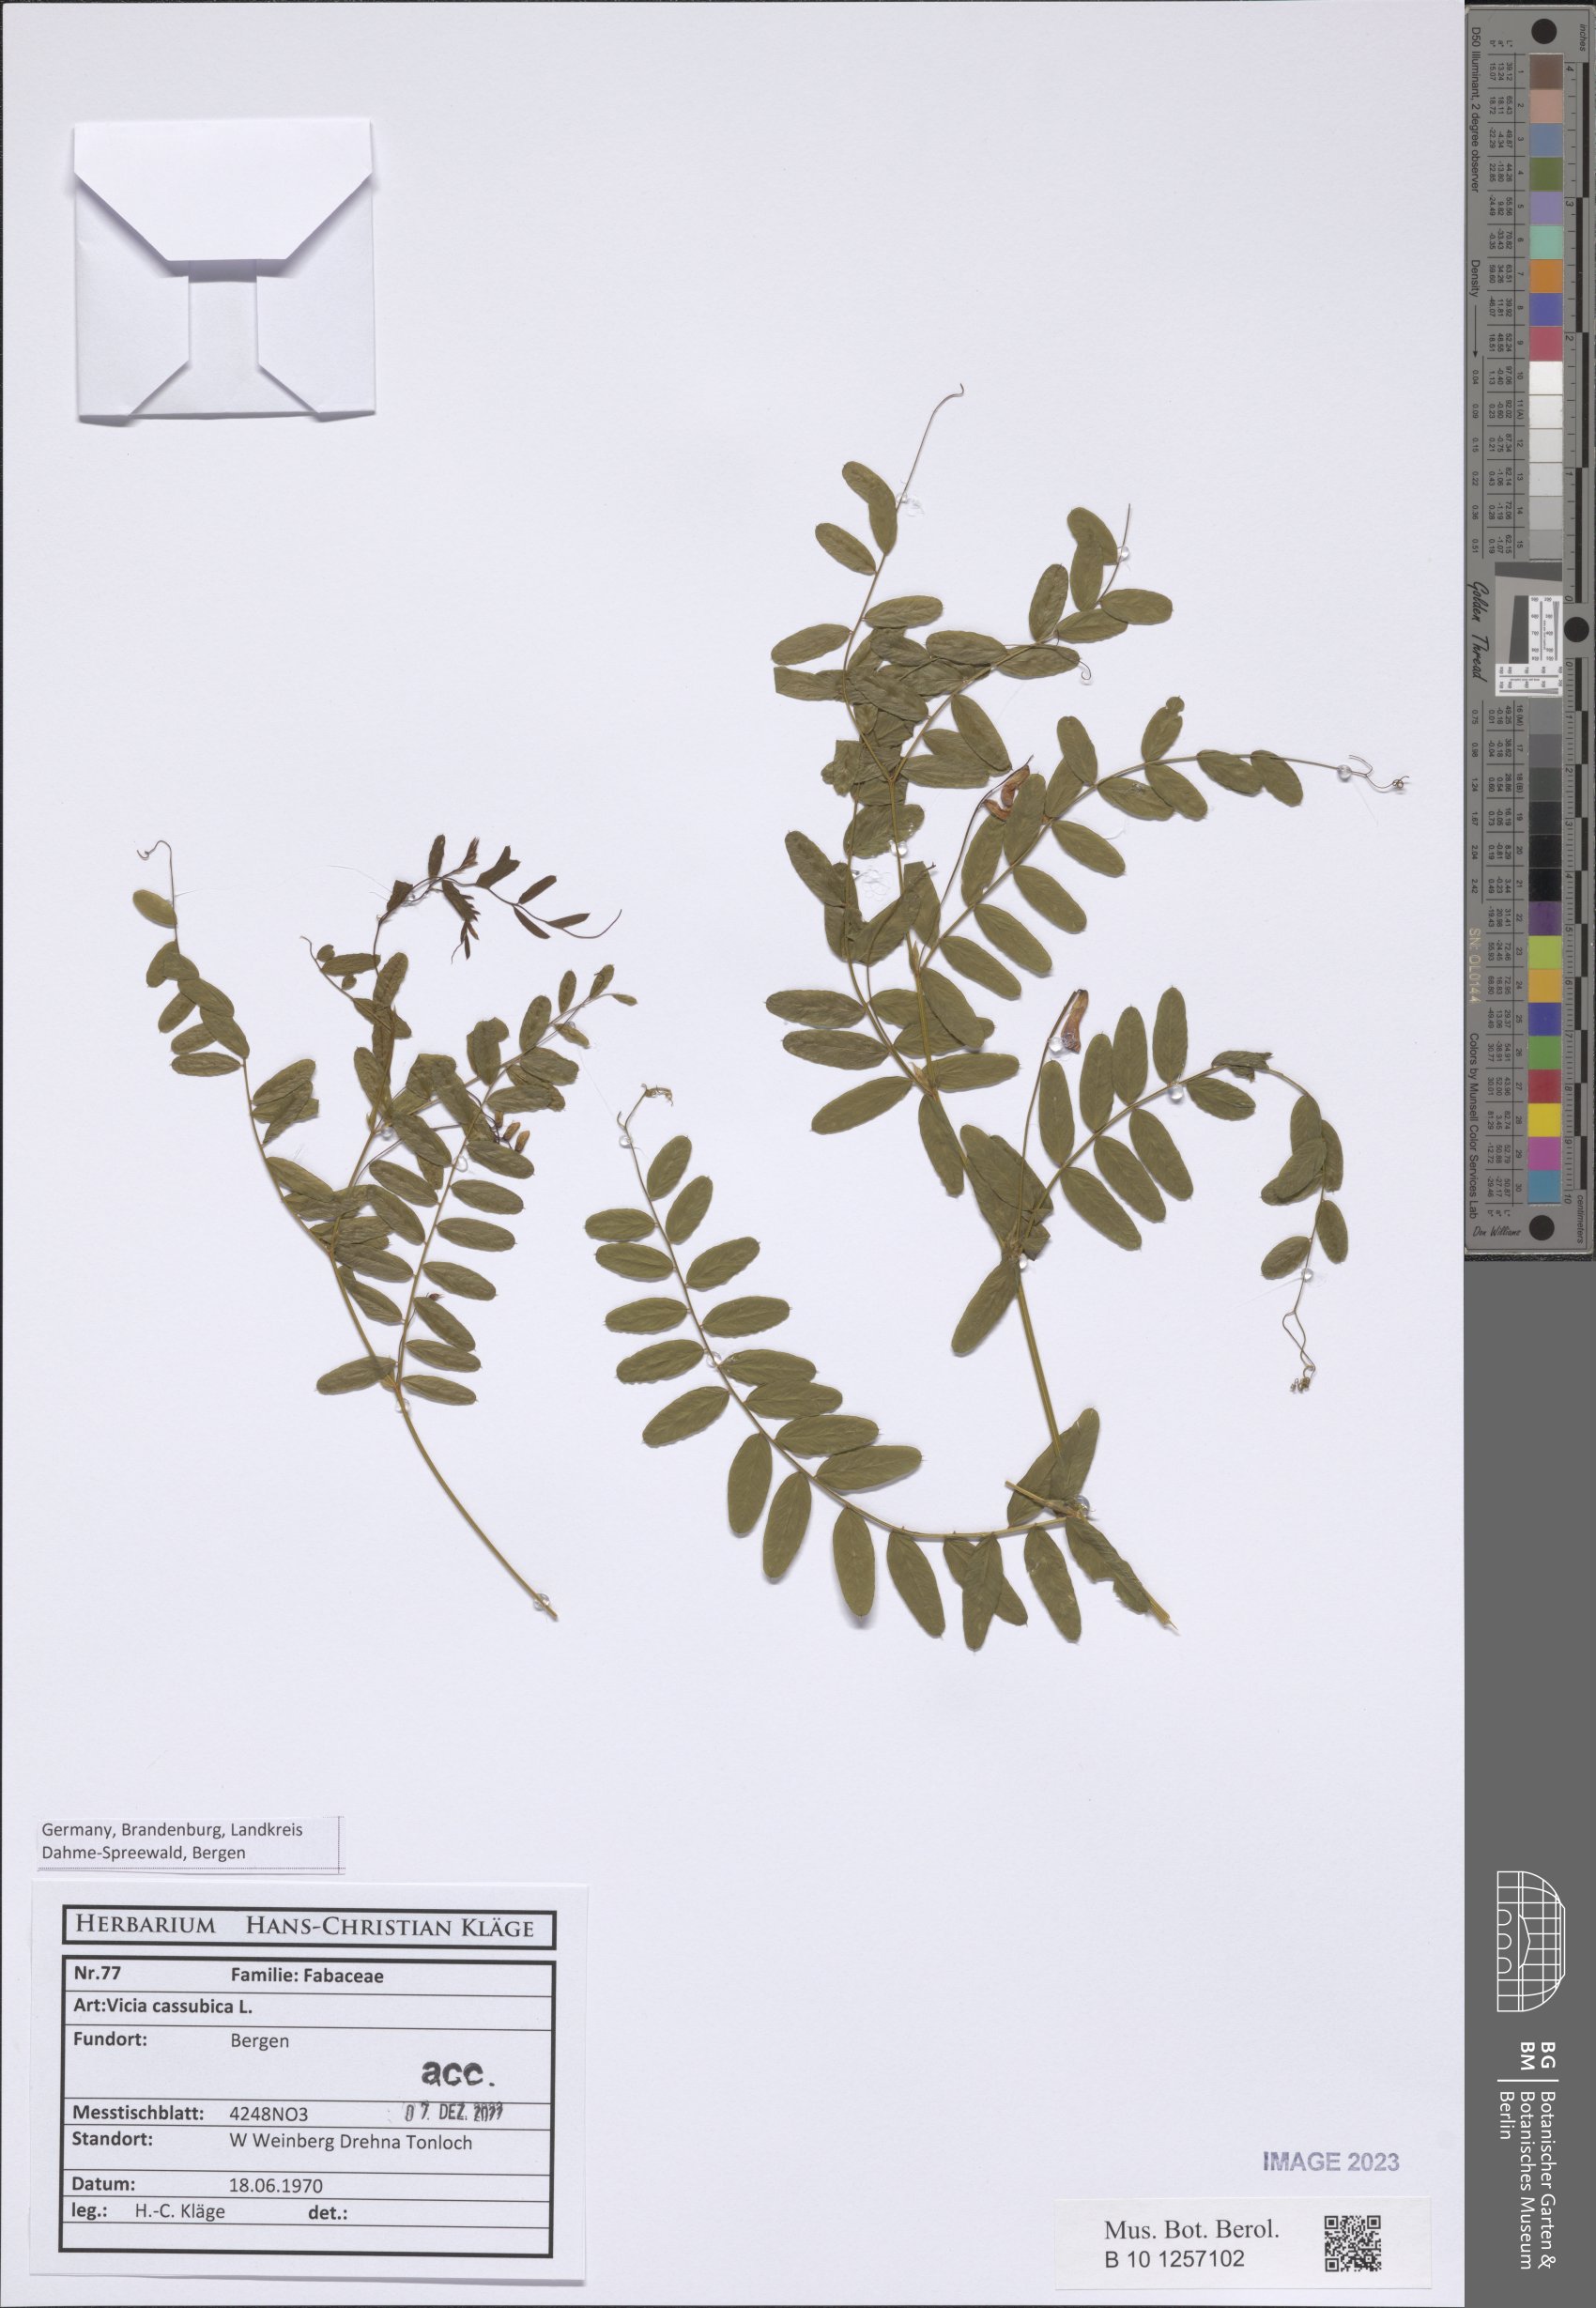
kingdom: Plantae
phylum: Tracheophyta
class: Magnoliopsida
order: Fabales
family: Fabaceae
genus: Vicia
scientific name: Vicia cassubica
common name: Danzig vetch
